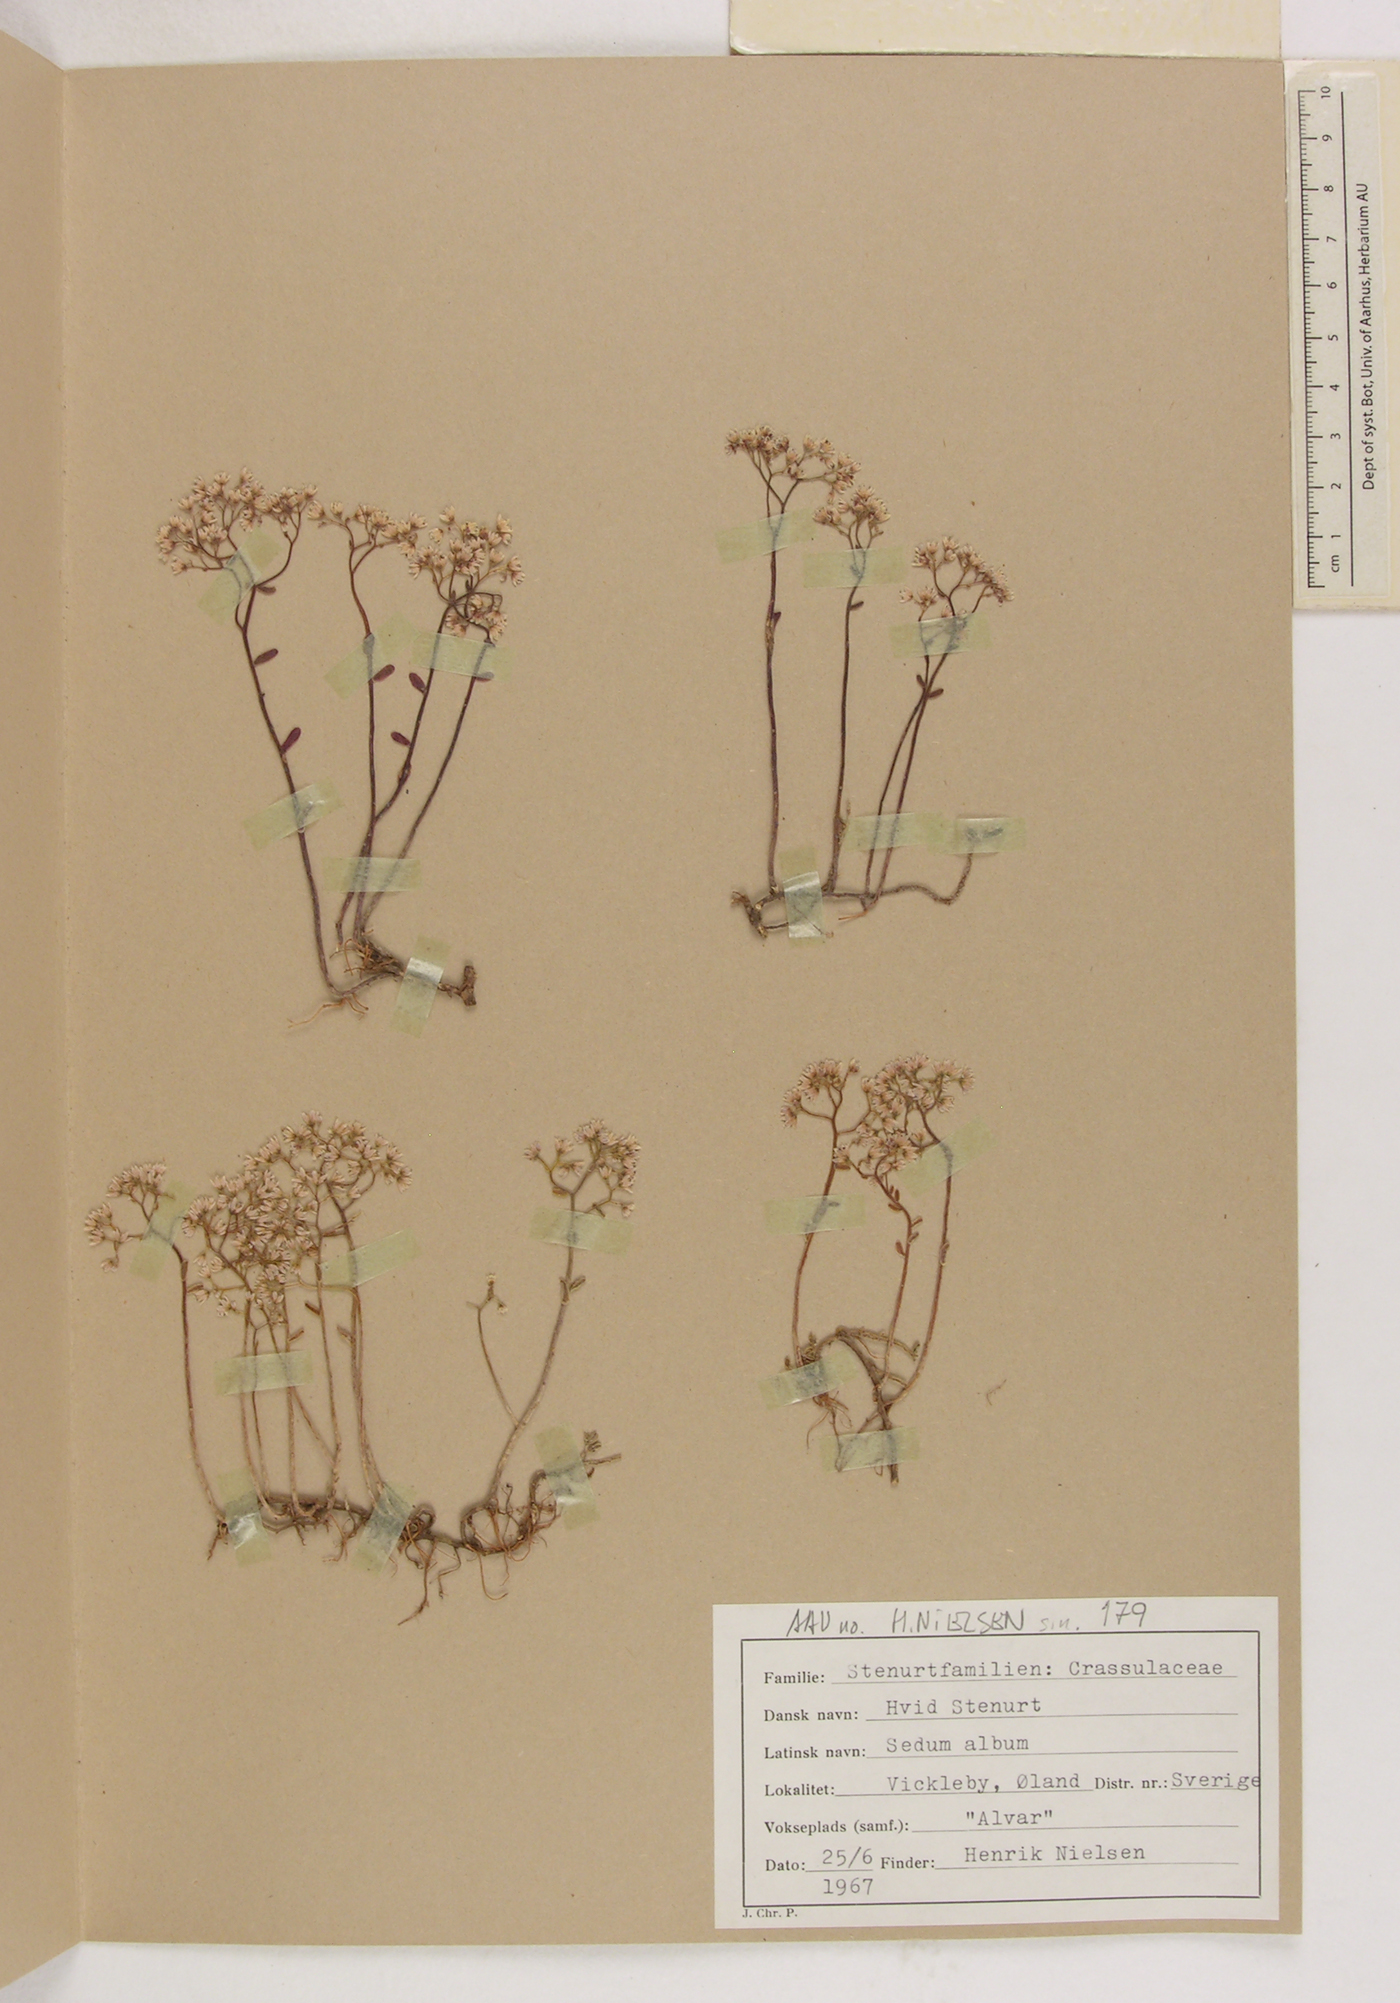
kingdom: Plantae
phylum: Tracheophyta
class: Magnoliopsida
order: Saxifragales
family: Crassulaceae
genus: Sedum
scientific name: Sedum album
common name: White stonecrop
